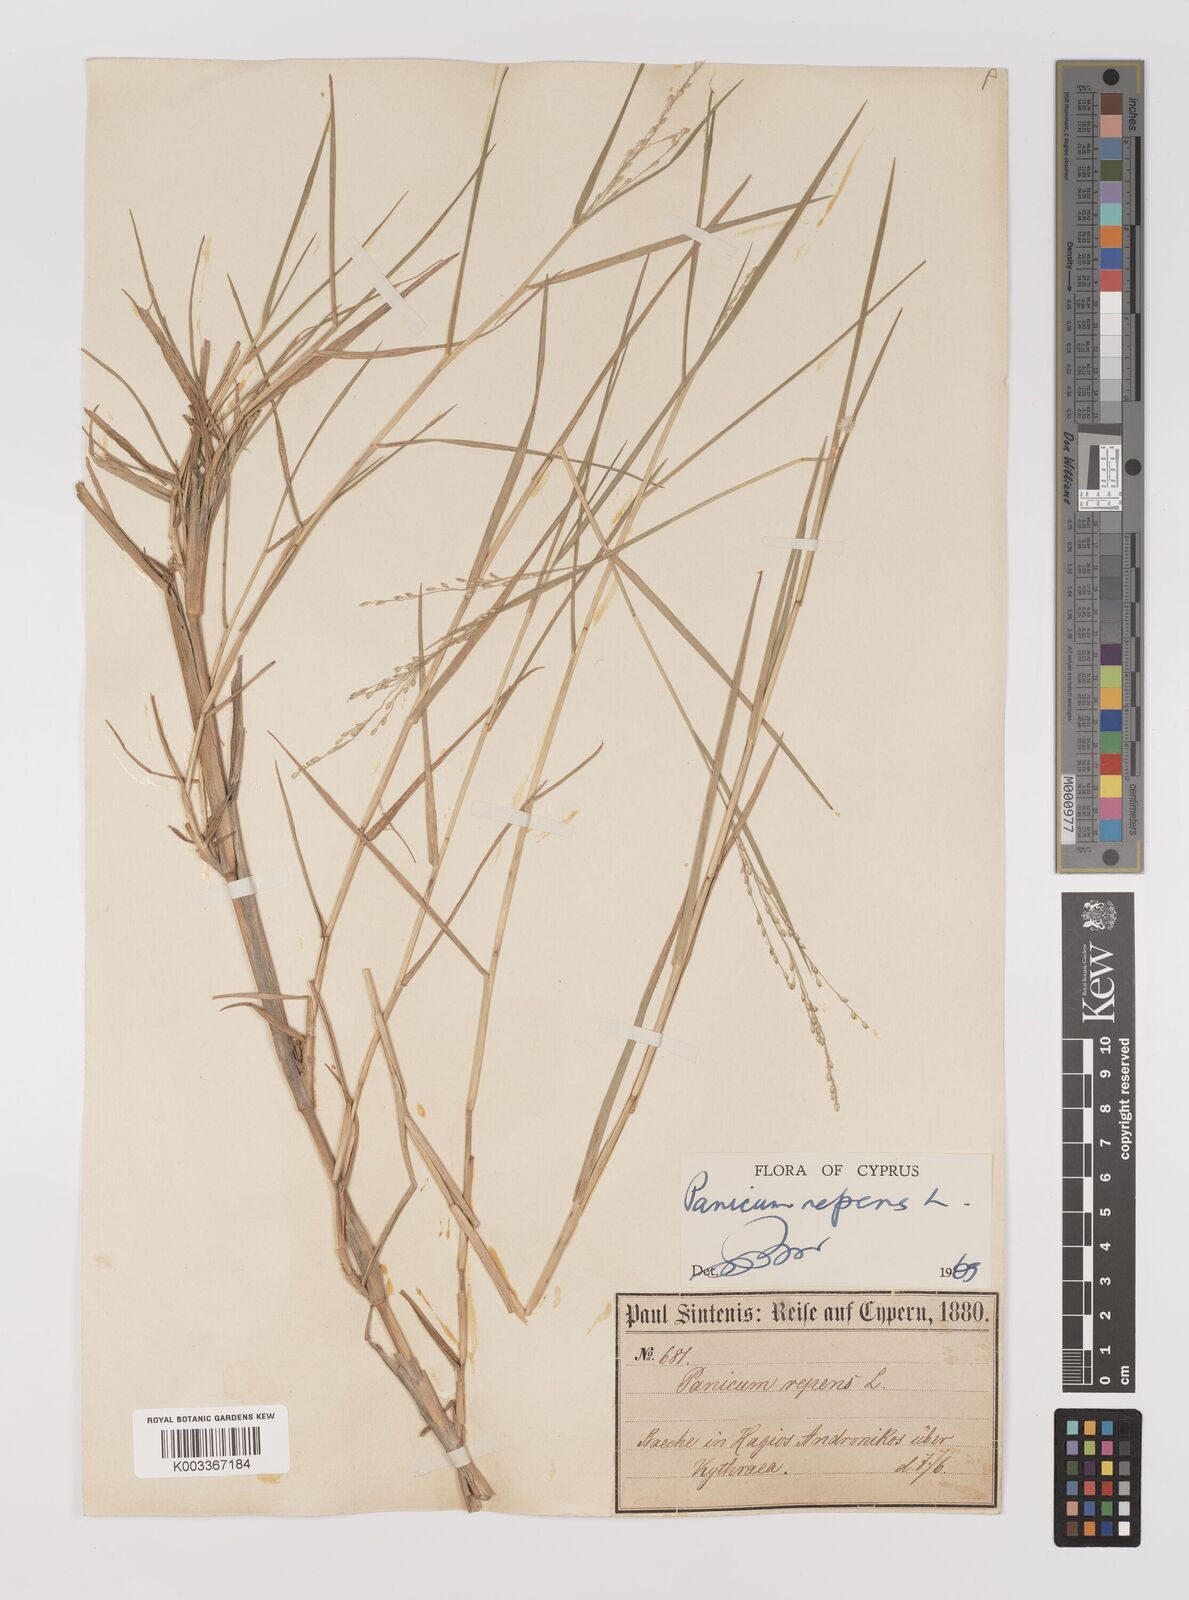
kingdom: Plantae
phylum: Tracheophyta
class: Liliopsida
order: Poales
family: Poaceae
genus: Panicum
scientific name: Panicum repens
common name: Torpedo grass
